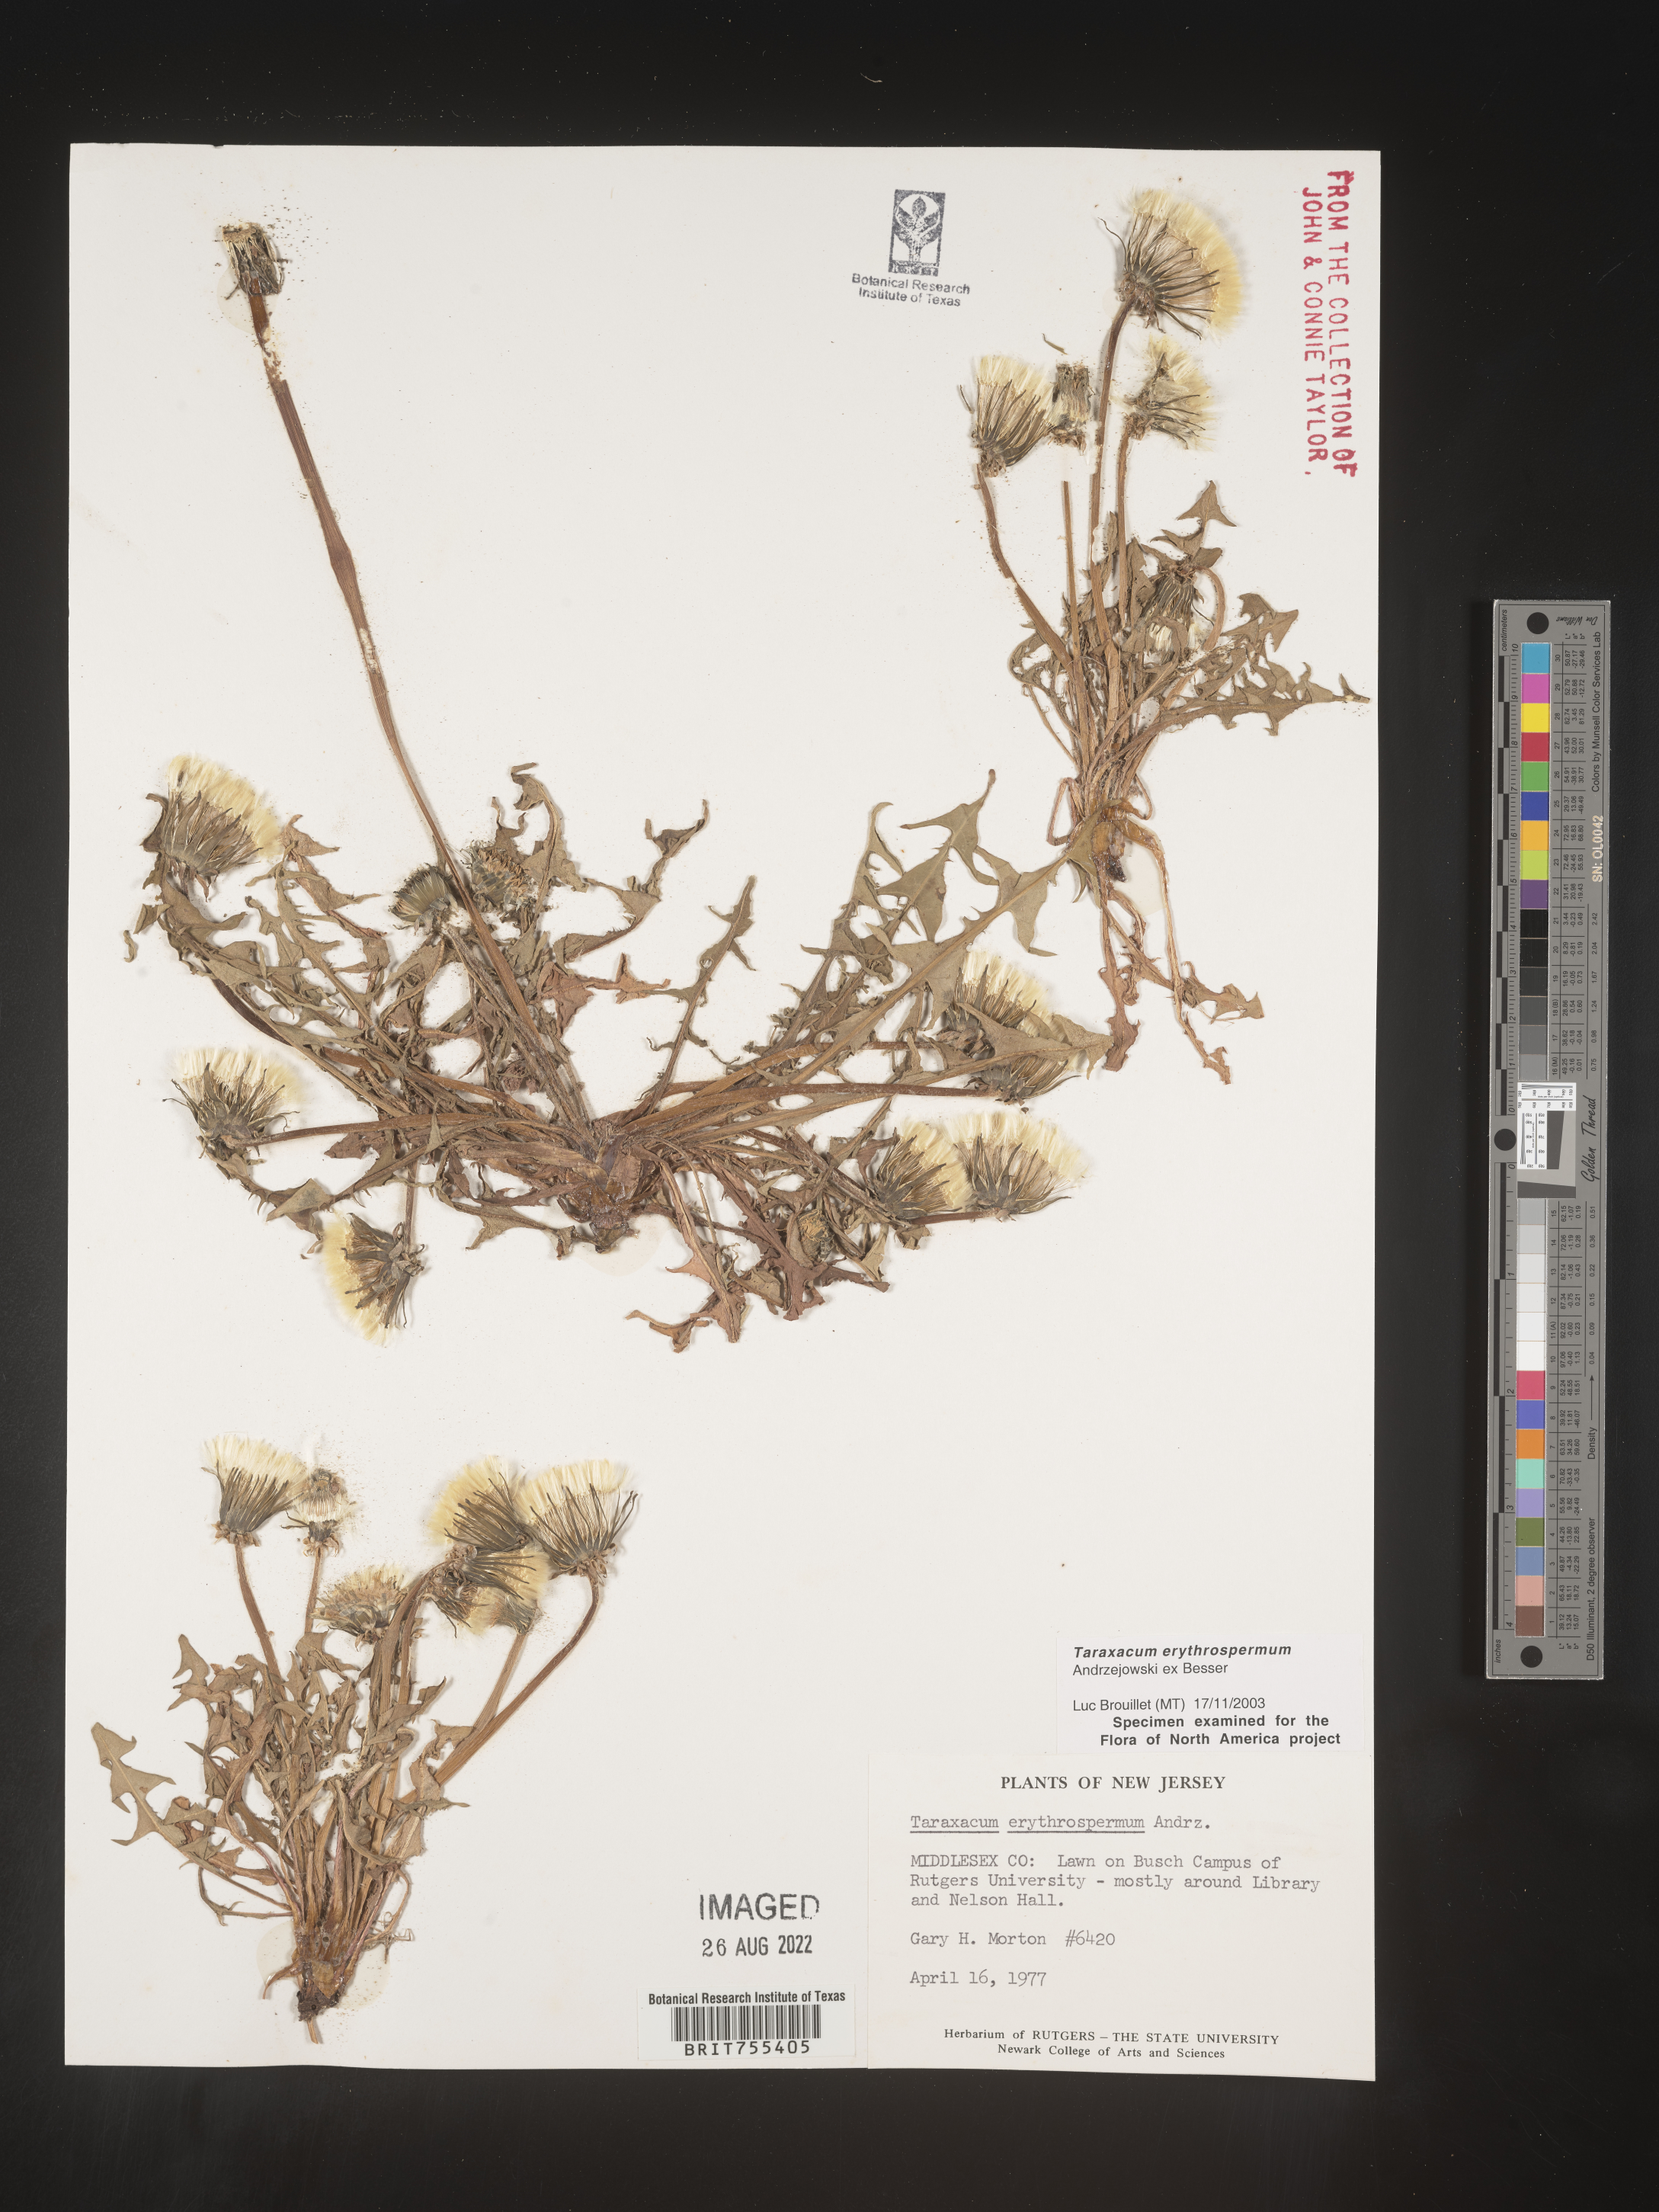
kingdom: Plantae
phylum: Tracheophyta
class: Magnoliopsida
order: Asterales
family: Asteraceae
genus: Taraxacum
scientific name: Taraxacum erythrospermum
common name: Rock dandelion
